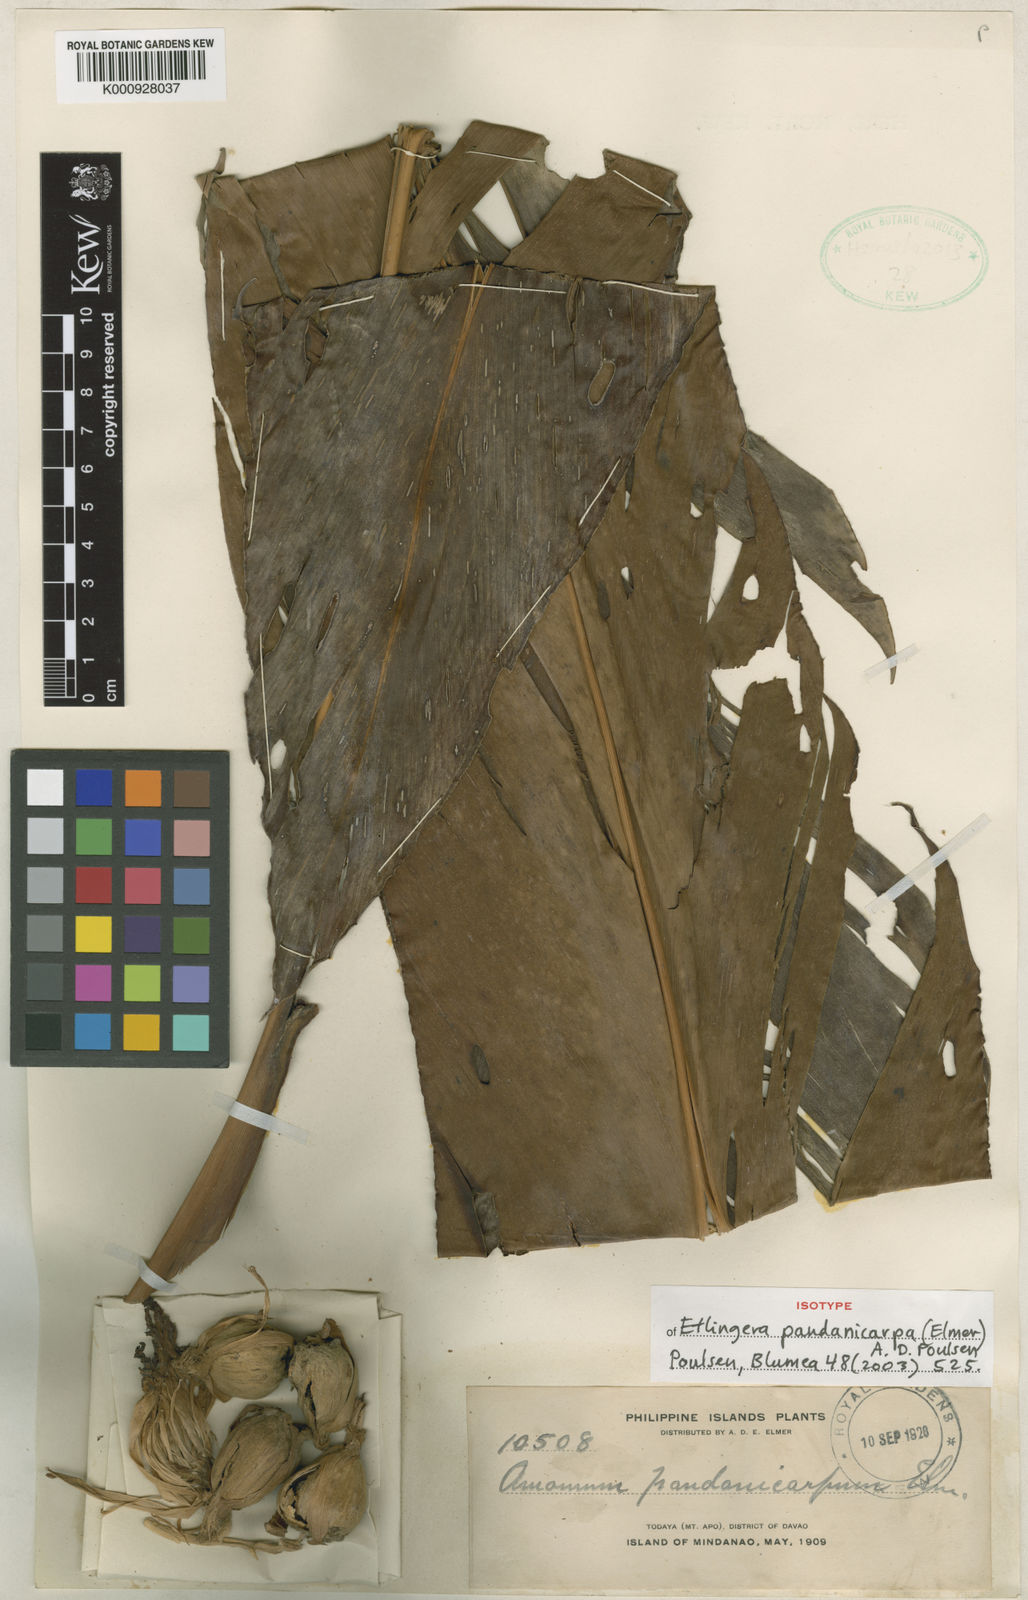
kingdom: Plantae
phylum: Tracheophyta
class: Liliopsida
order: Zingiberales
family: Zingiberaceae
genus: Etlingera
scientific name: Etlingera fimbriobracteata
